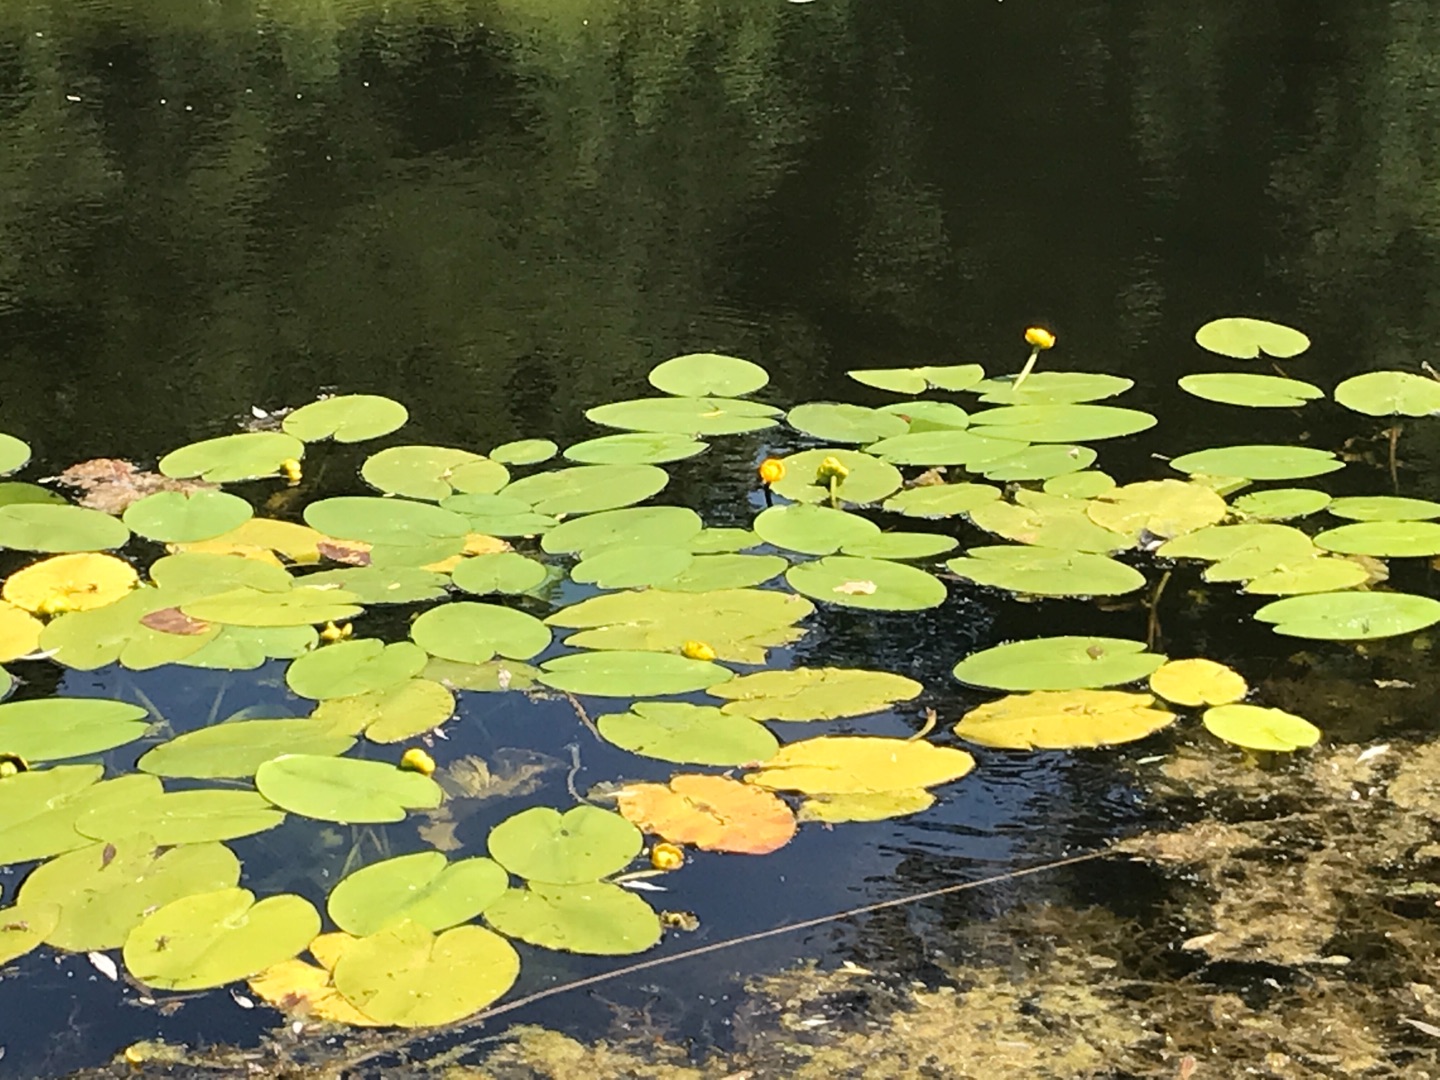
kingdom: Plantae
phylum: Tracheophyta
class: Magnoliopsida
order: Nymphaeales
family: Nymphaeaceae
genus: Nuphar
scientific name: Nuphar lutea
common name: Gul åkande
